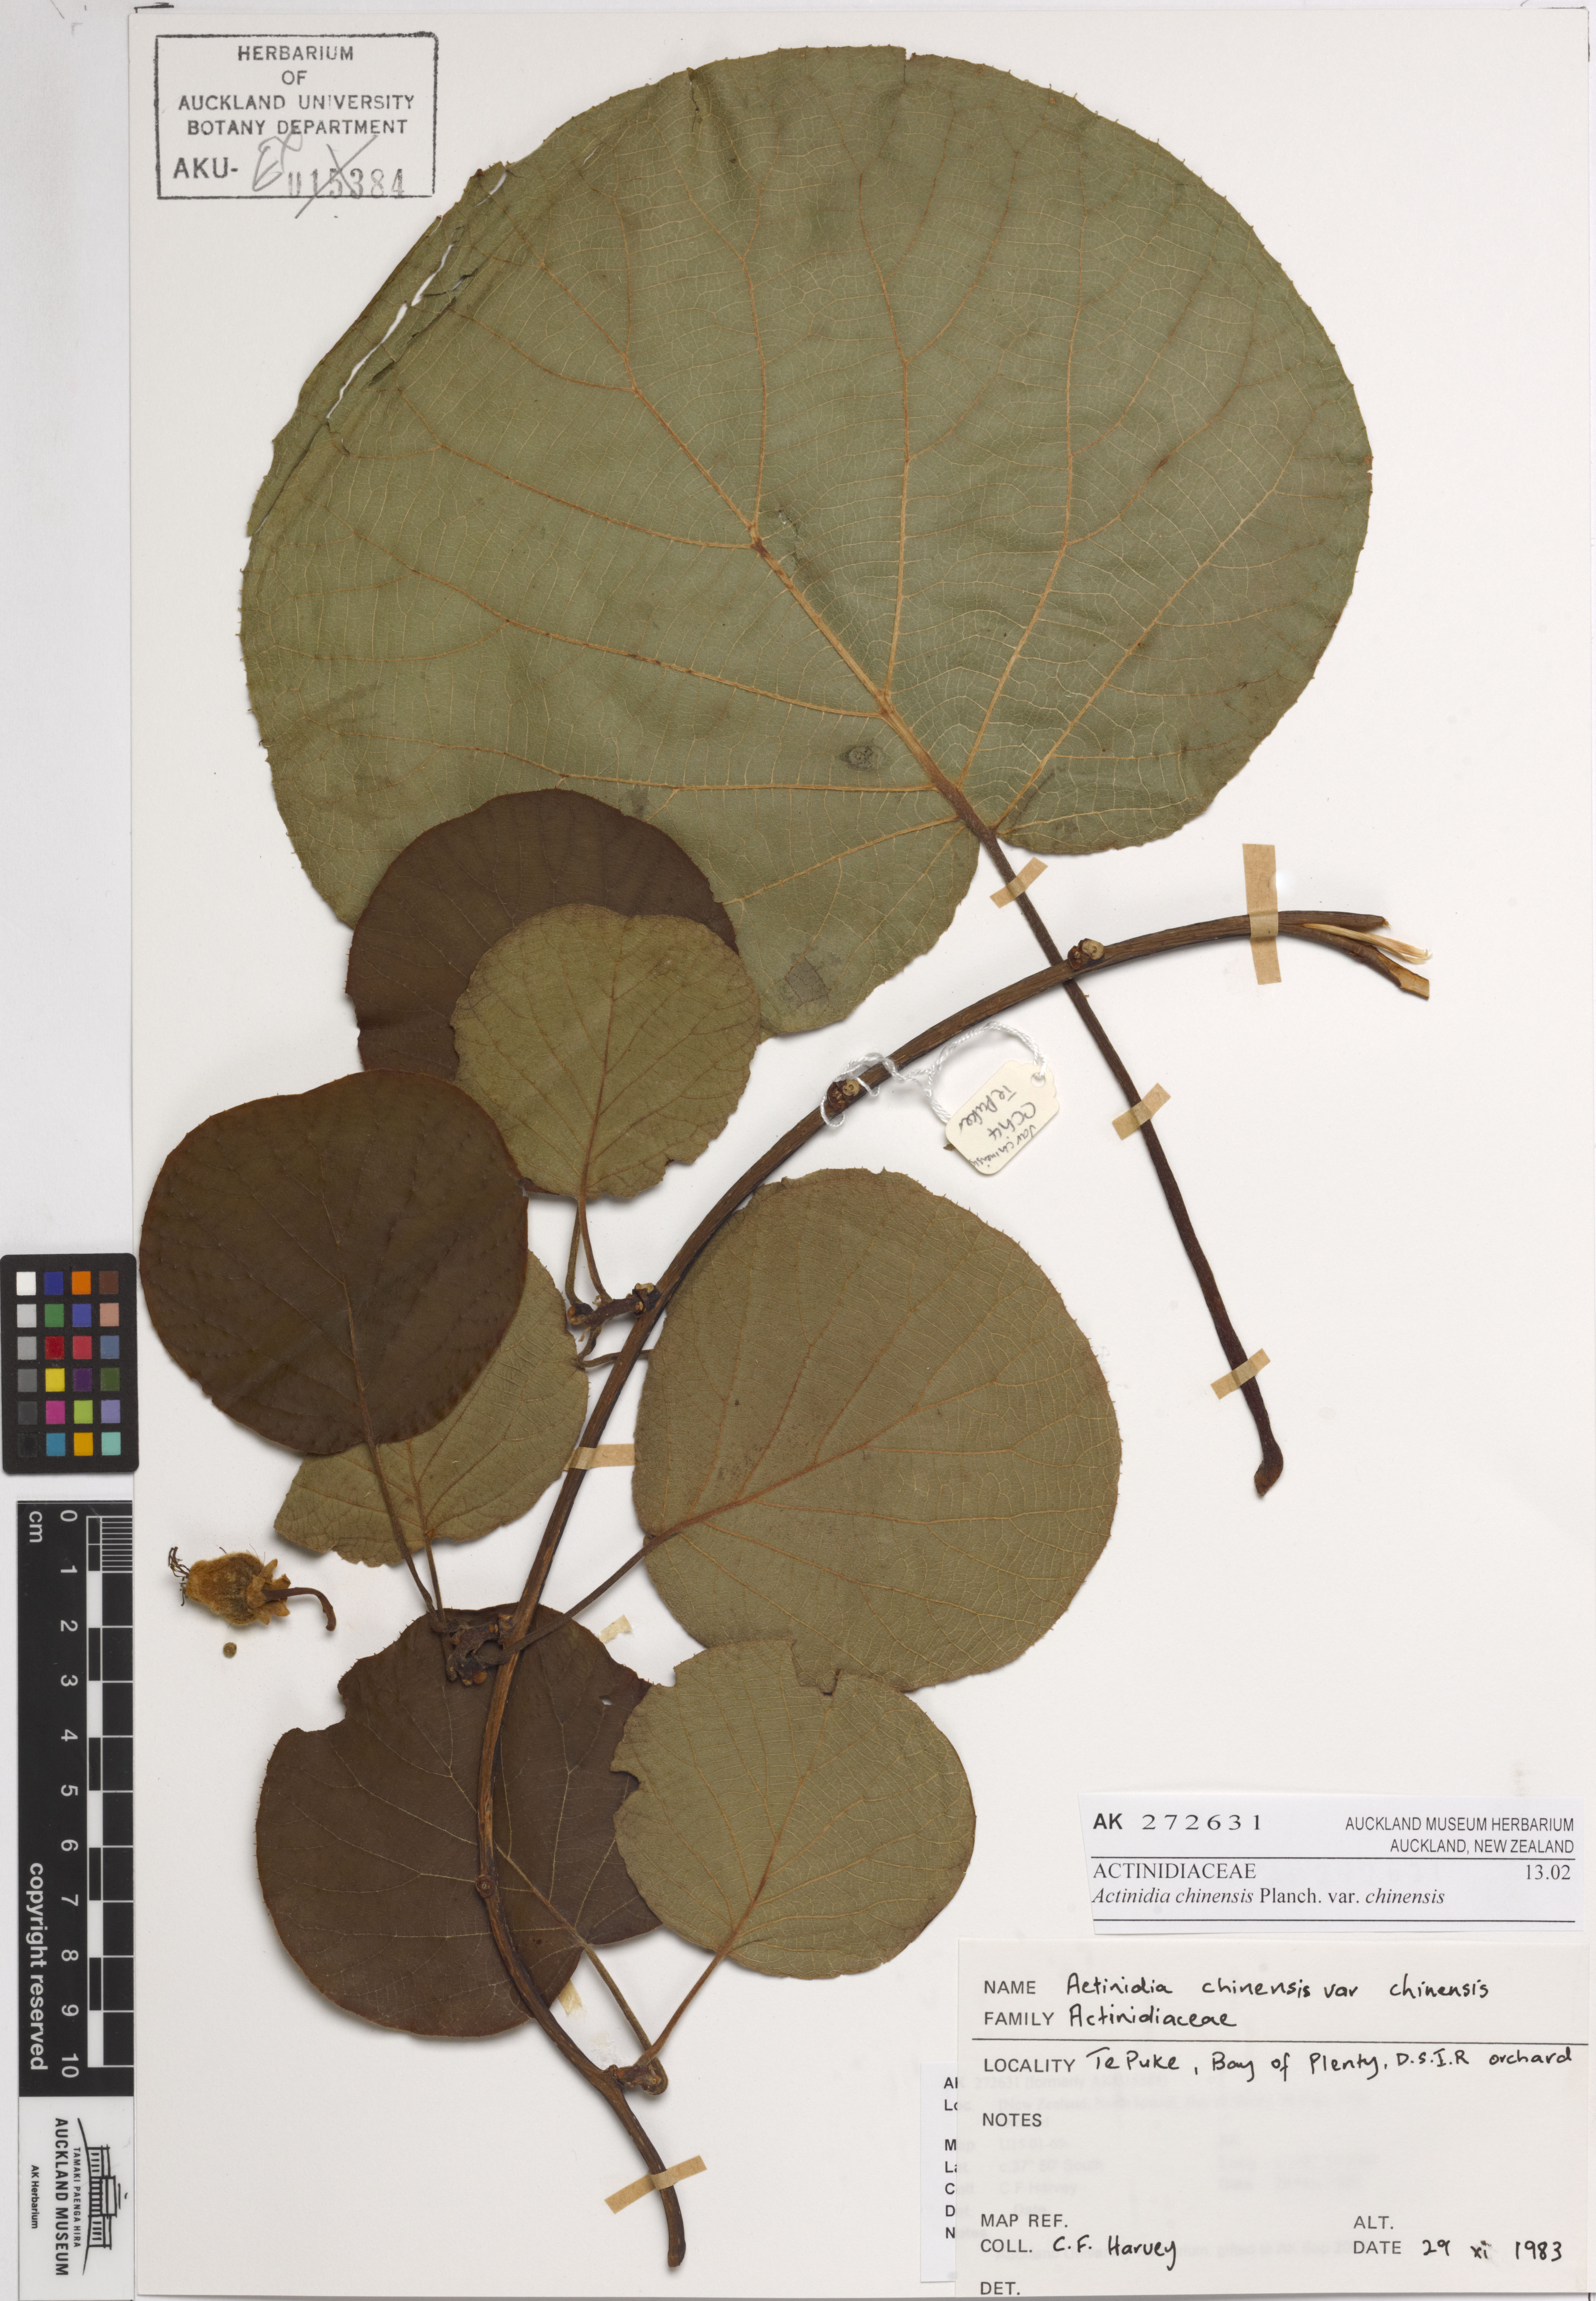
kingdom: Plantae
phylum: Tracheophyta
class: Magnoliopsida
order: Ericales
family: Actinidiaceae
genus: Actinidia
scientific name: Actinidia chinensis
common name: Kiwi
